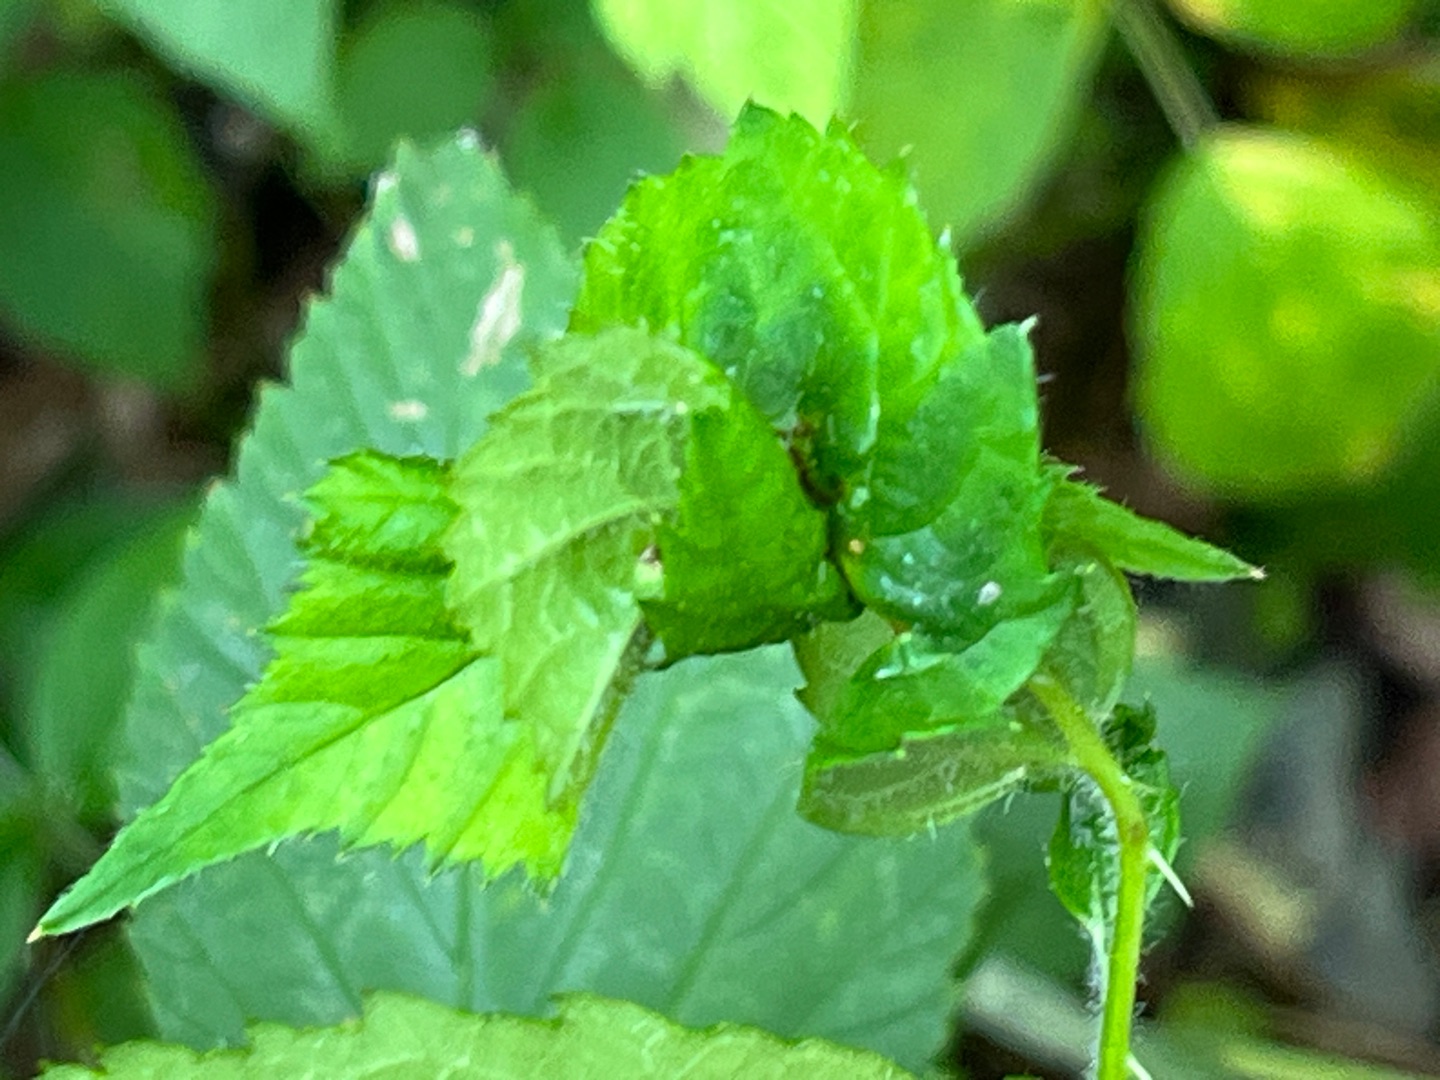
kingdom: Animalia
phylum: Arthropoda
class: Insecta
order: Diptera
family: Cecidomyiidae
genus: Dasineura
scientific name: Dasineura plicatrix
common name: Brombærbladgalmyg
